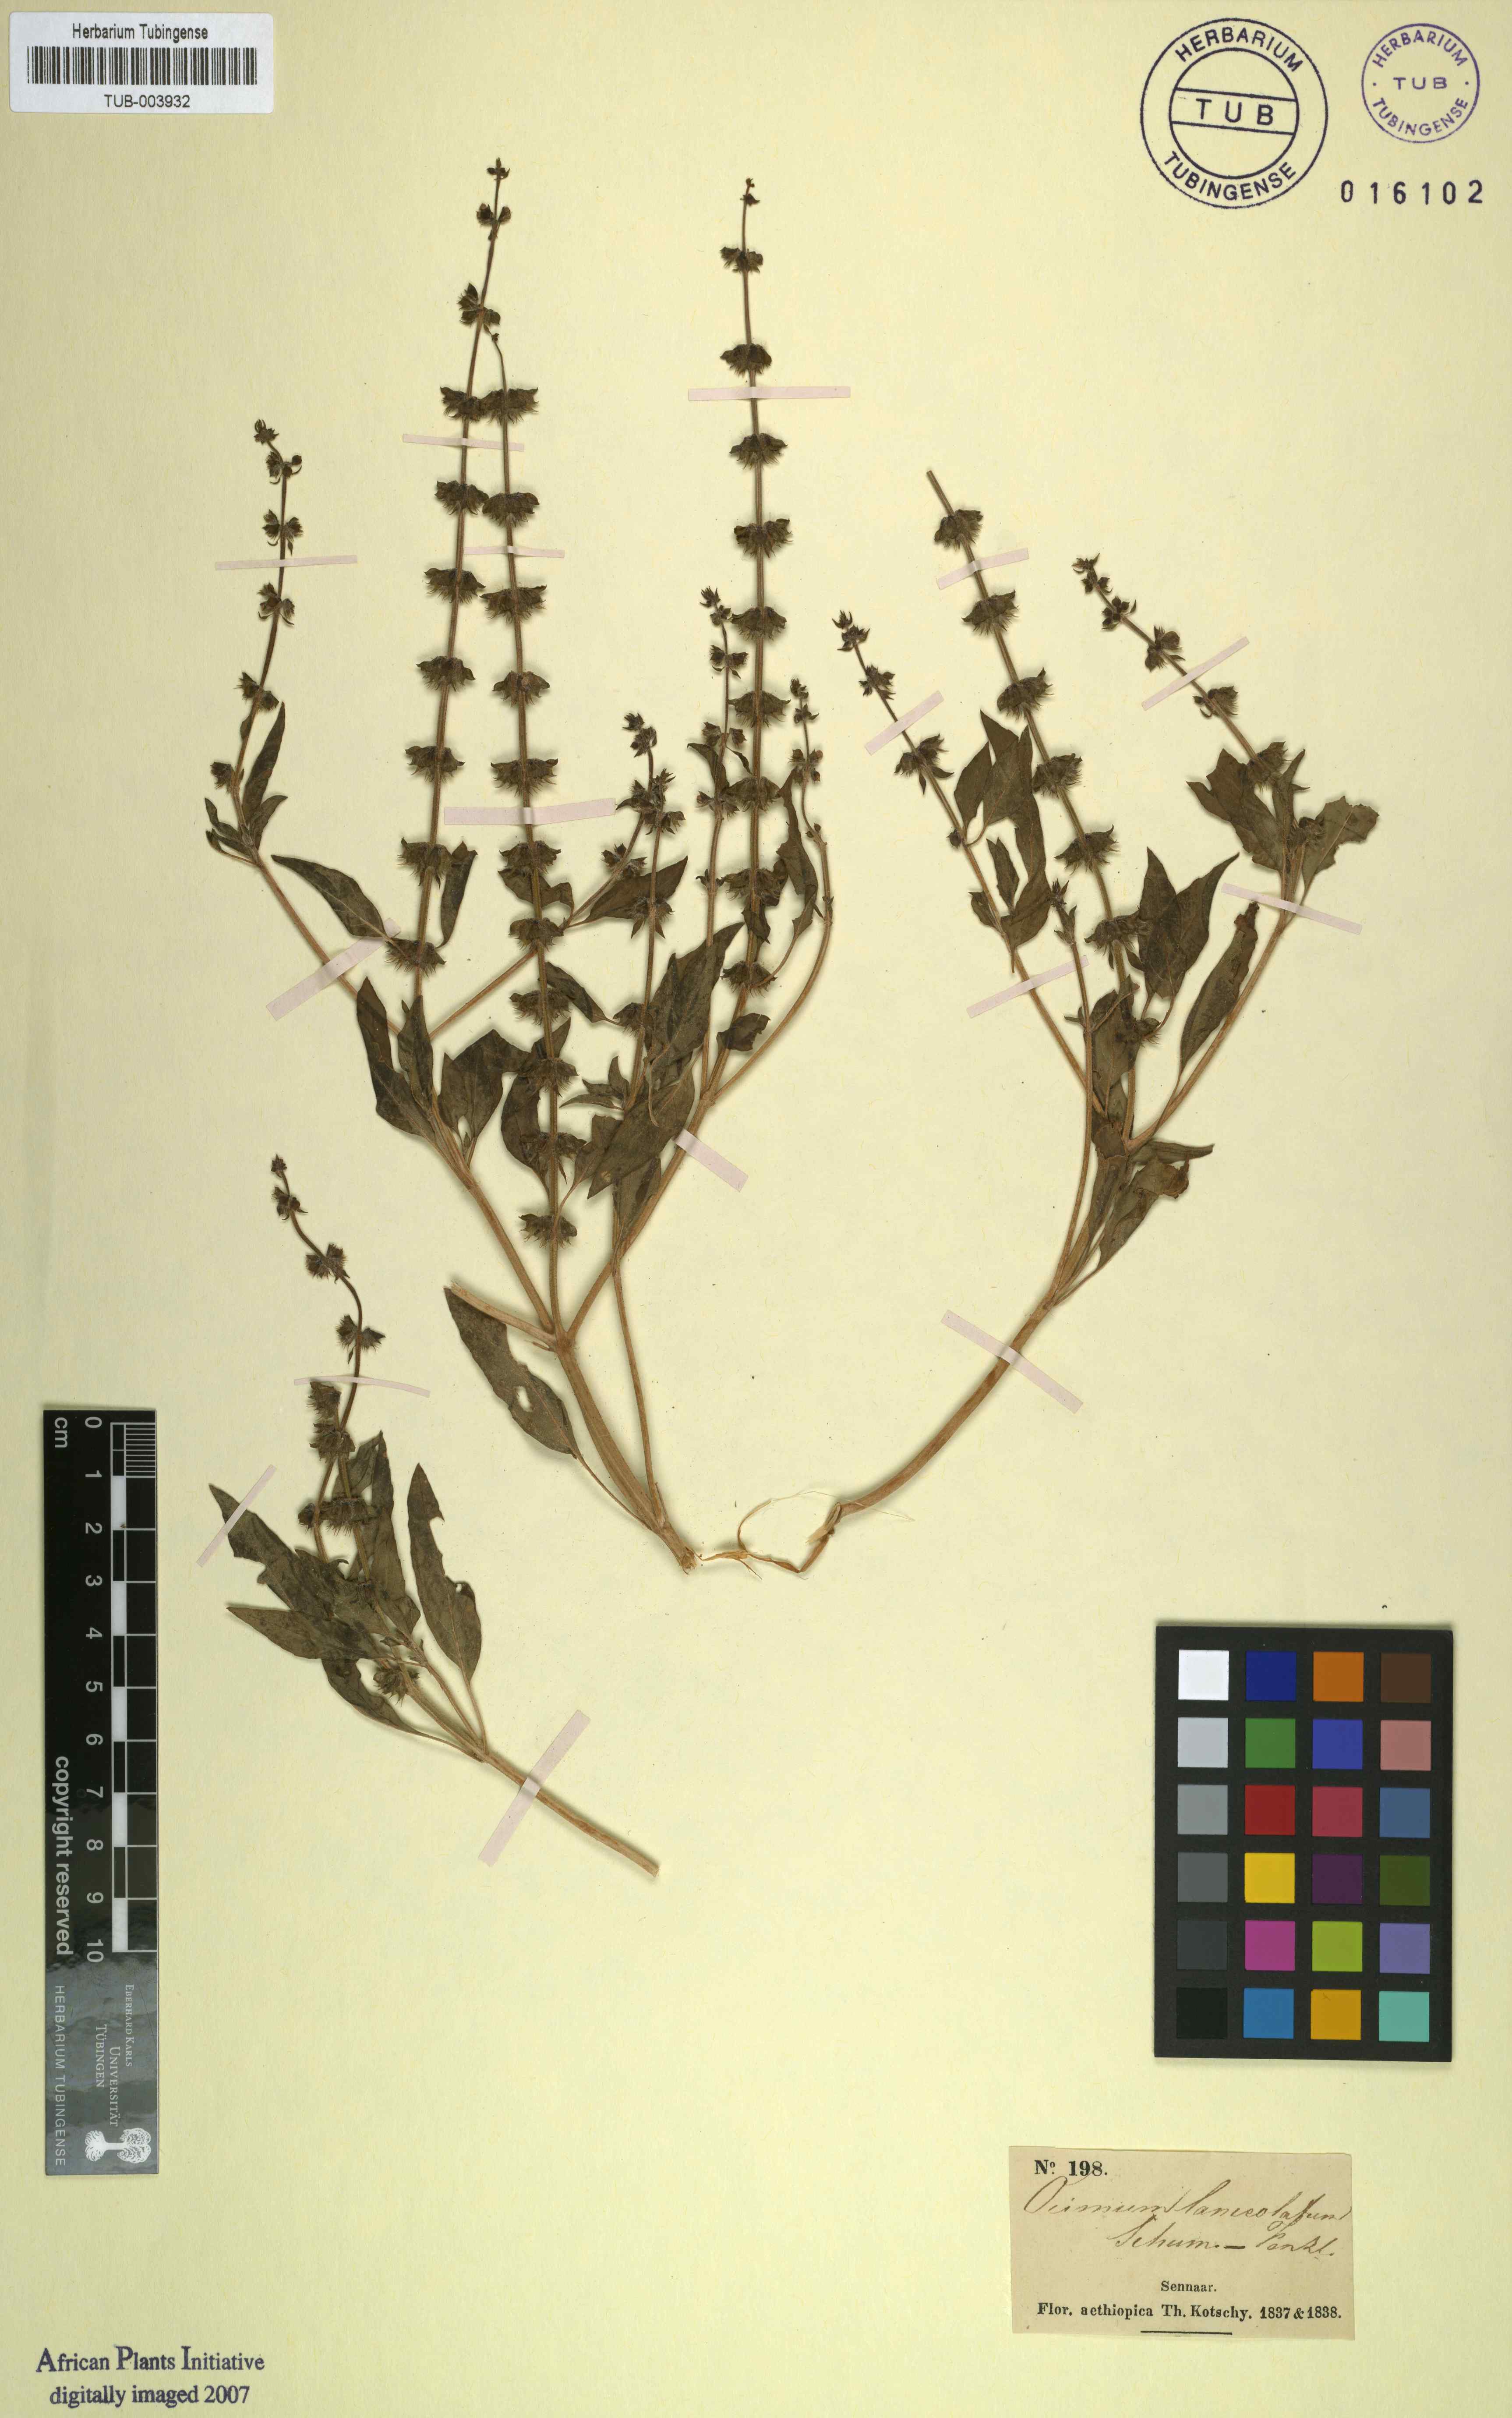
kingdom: Plantae
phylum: Tracheophyta
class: Magnoliopsida
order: Lamiales
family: Lamiaceae
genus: Ocimum
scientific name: Ocimum basilicum
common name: Sweet basil
